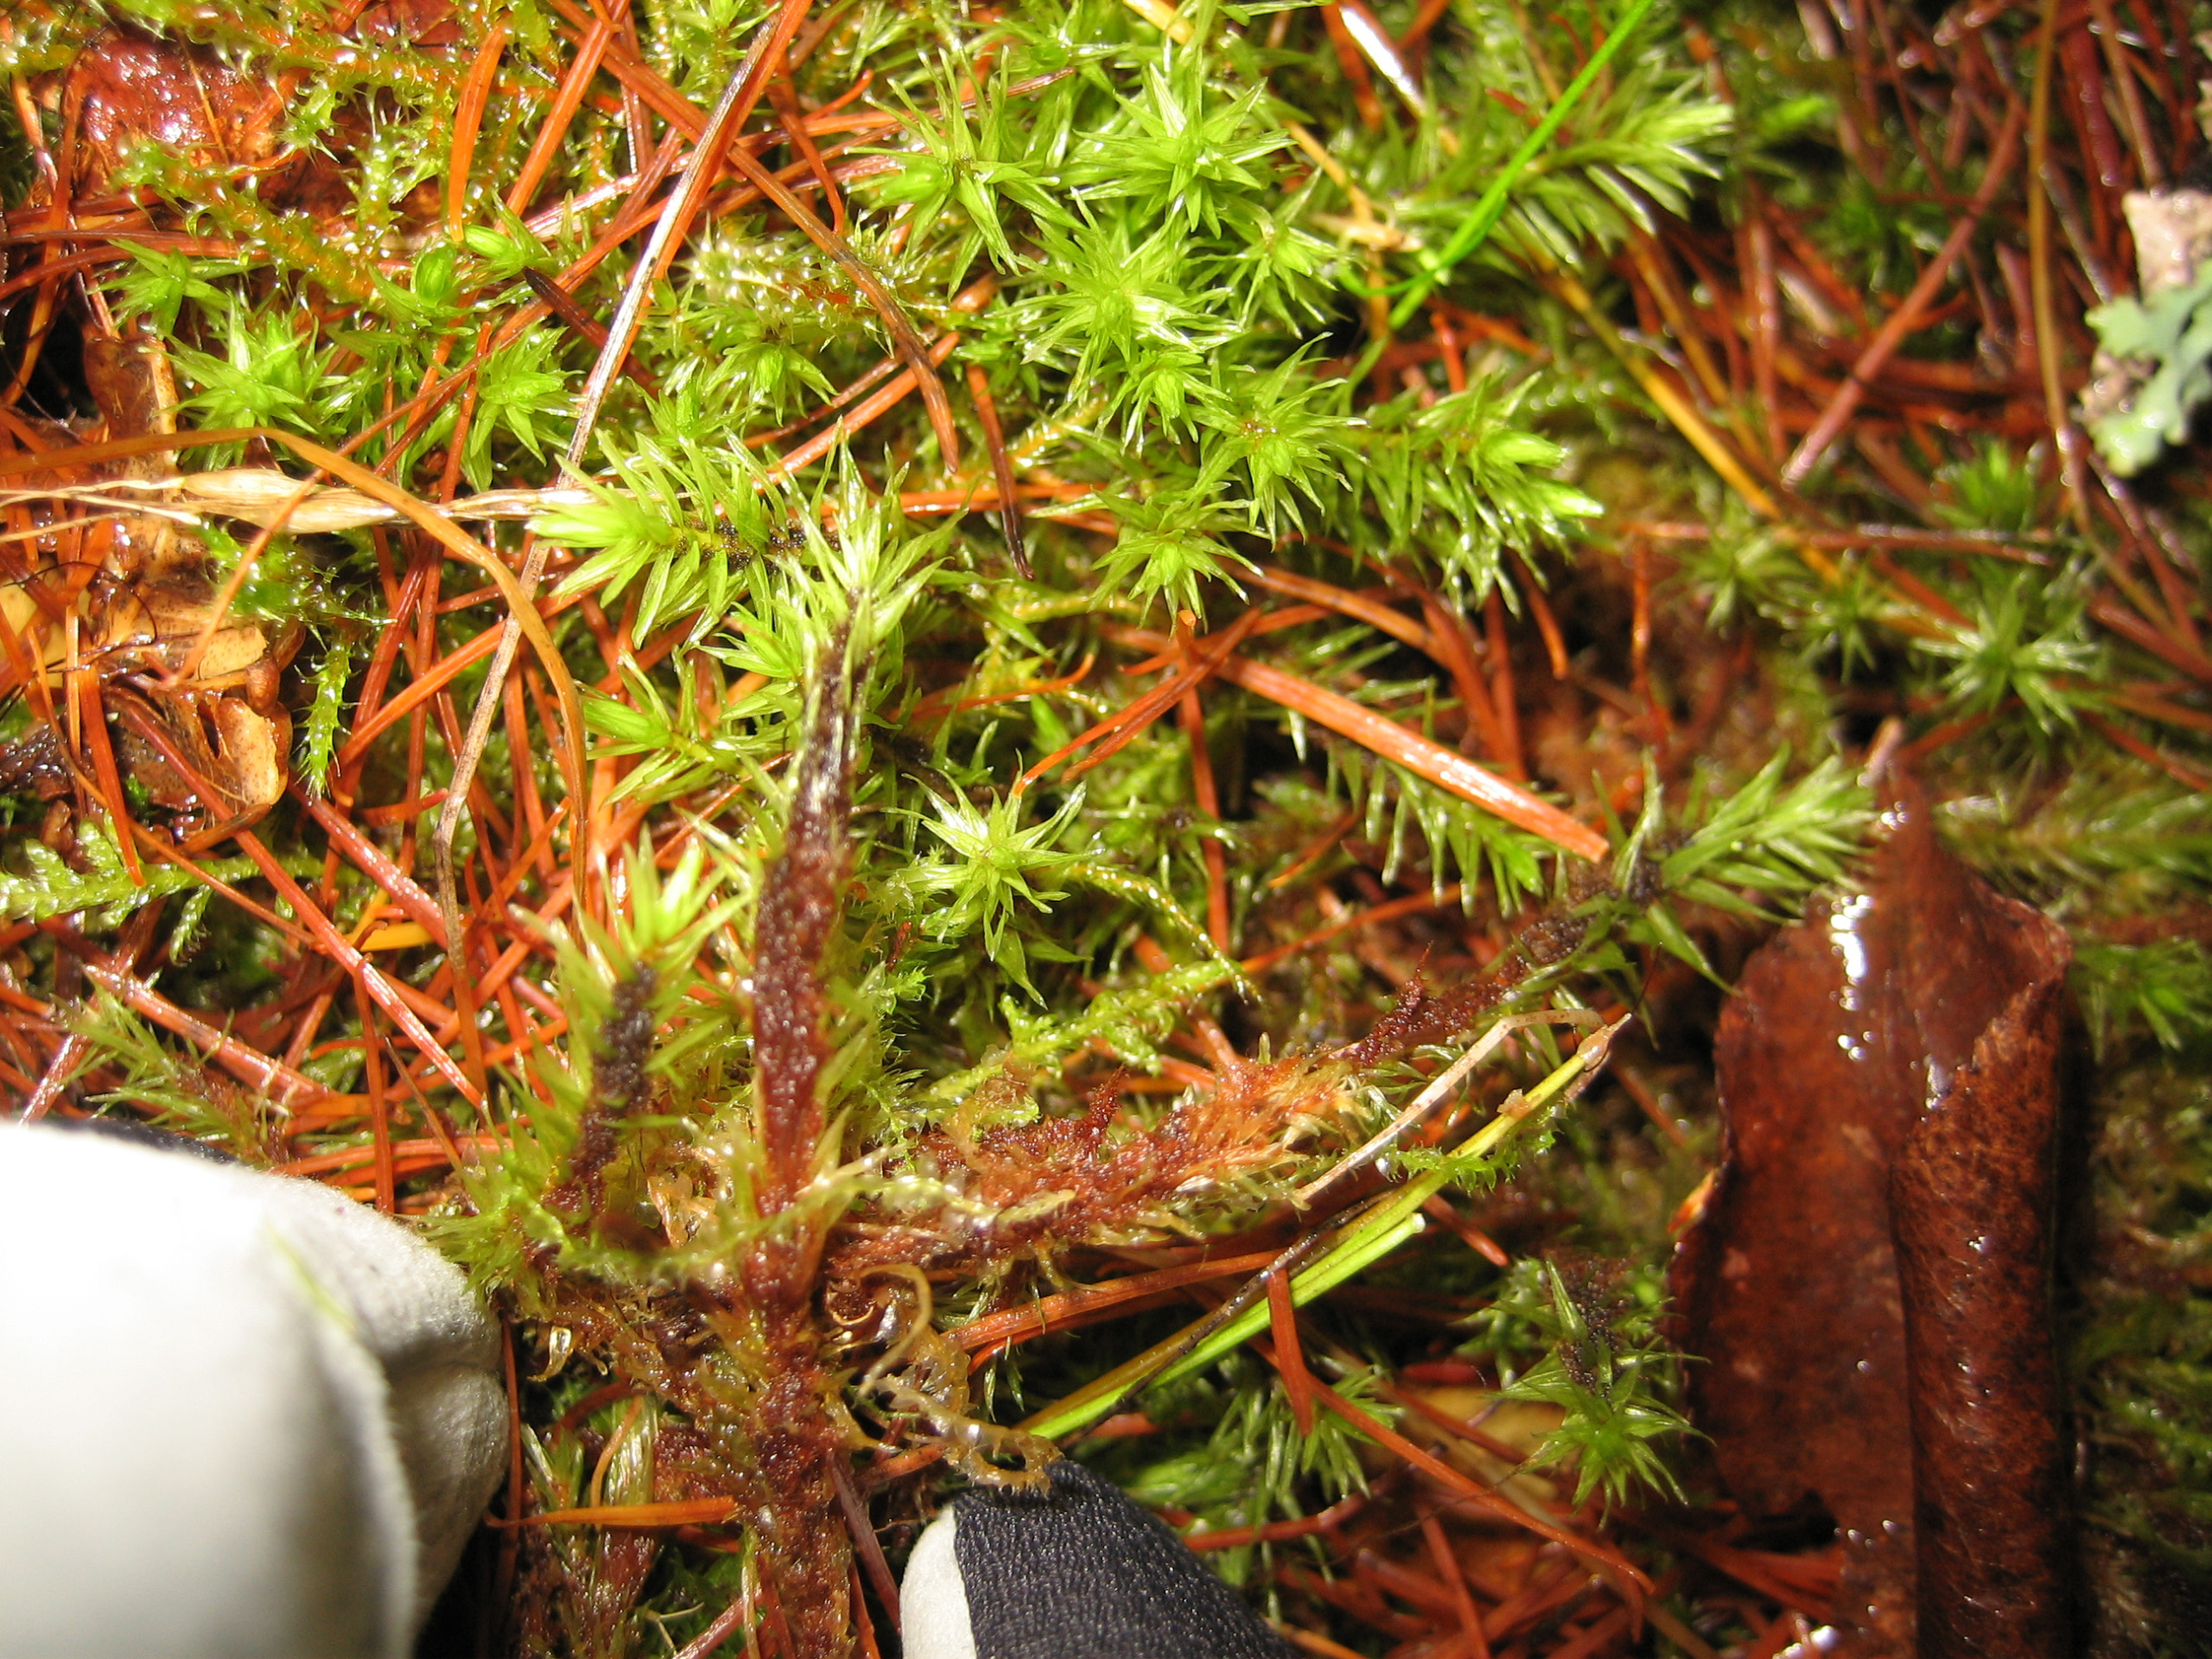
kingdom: Plantae
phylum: Bryophyta
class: Bryopsida
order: Aulacomniales
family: Aulacomniaceae
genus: Aulacomnium
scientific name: Aulacomnium palustre
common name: Almindelig filtmos
